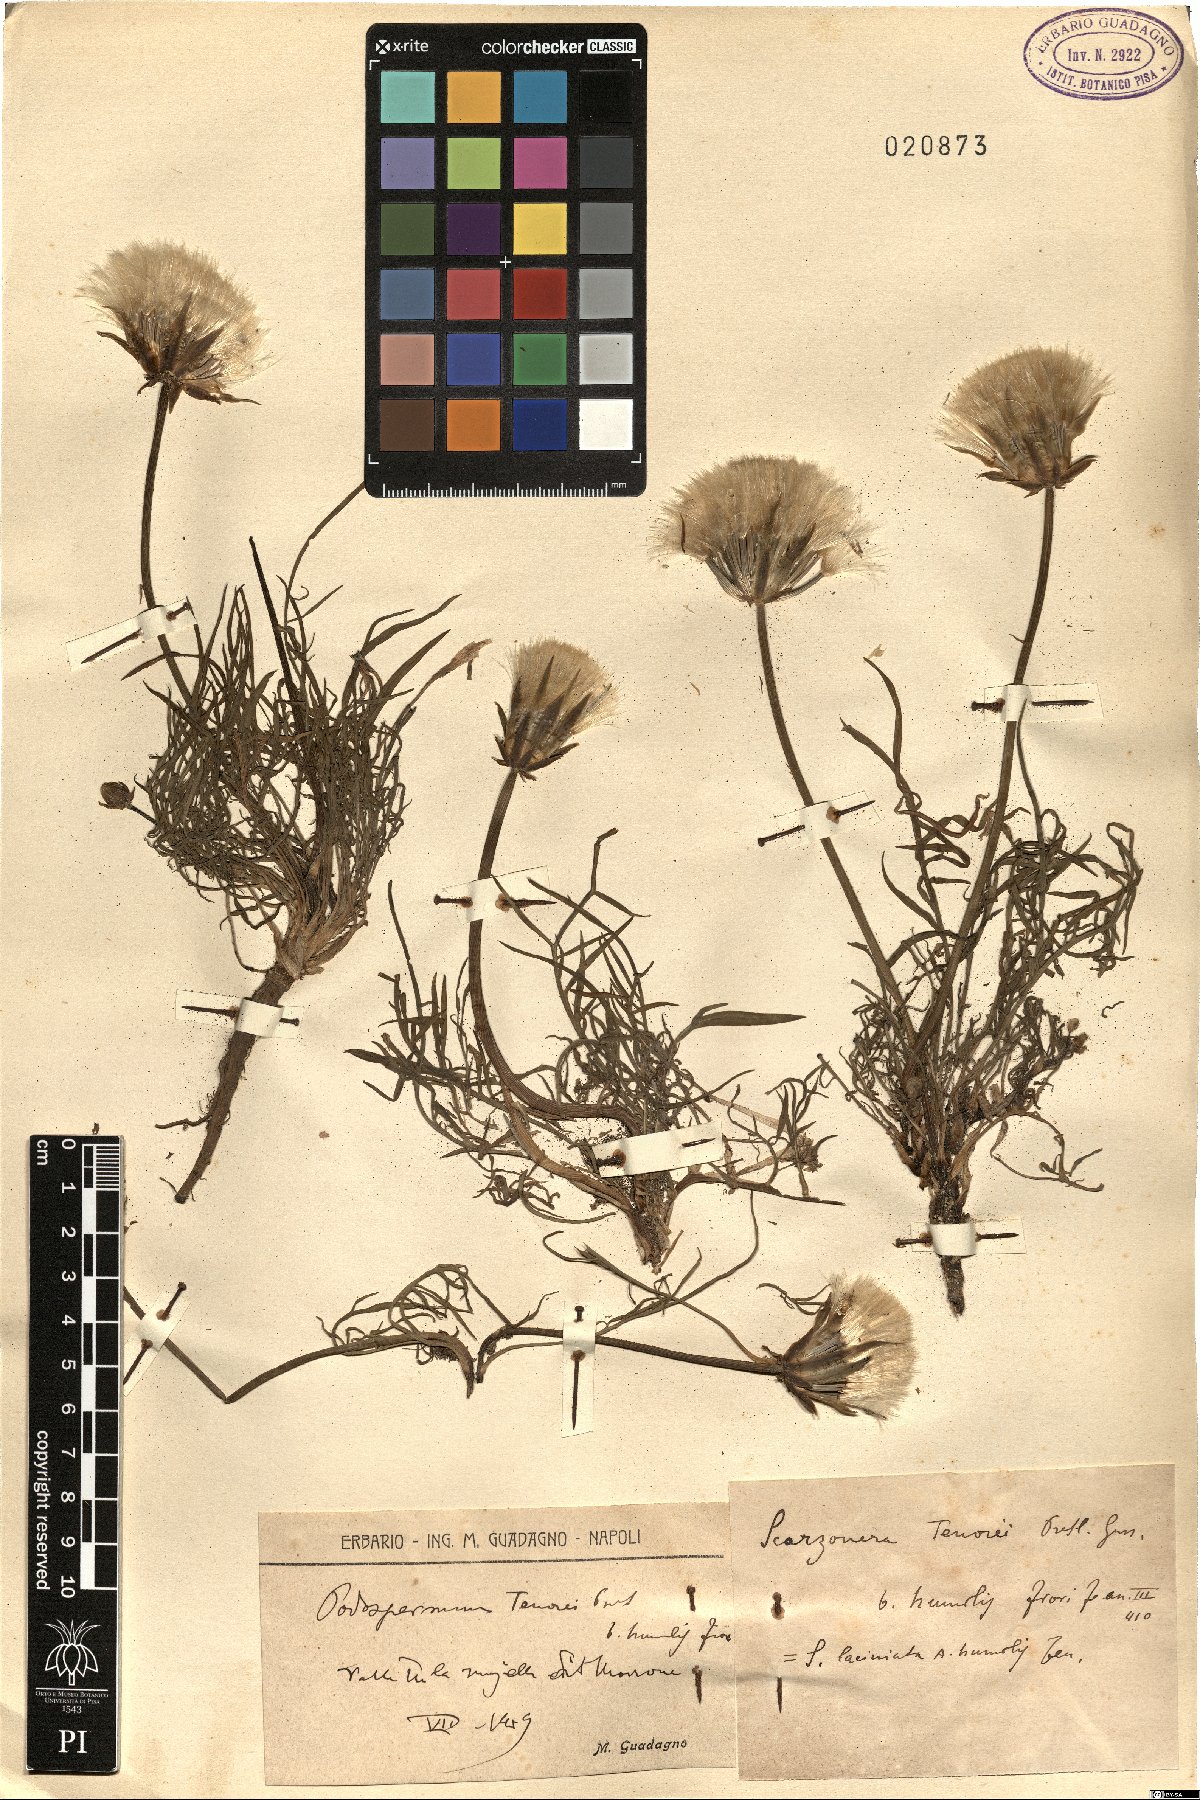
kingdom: Plantae
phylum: Tracheophyta
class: Magnoliopsida
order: Asterales
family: Asteraceae
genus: Scorzonera
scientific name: Scorzonera laciniata
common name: Cutleaf vipergrass
